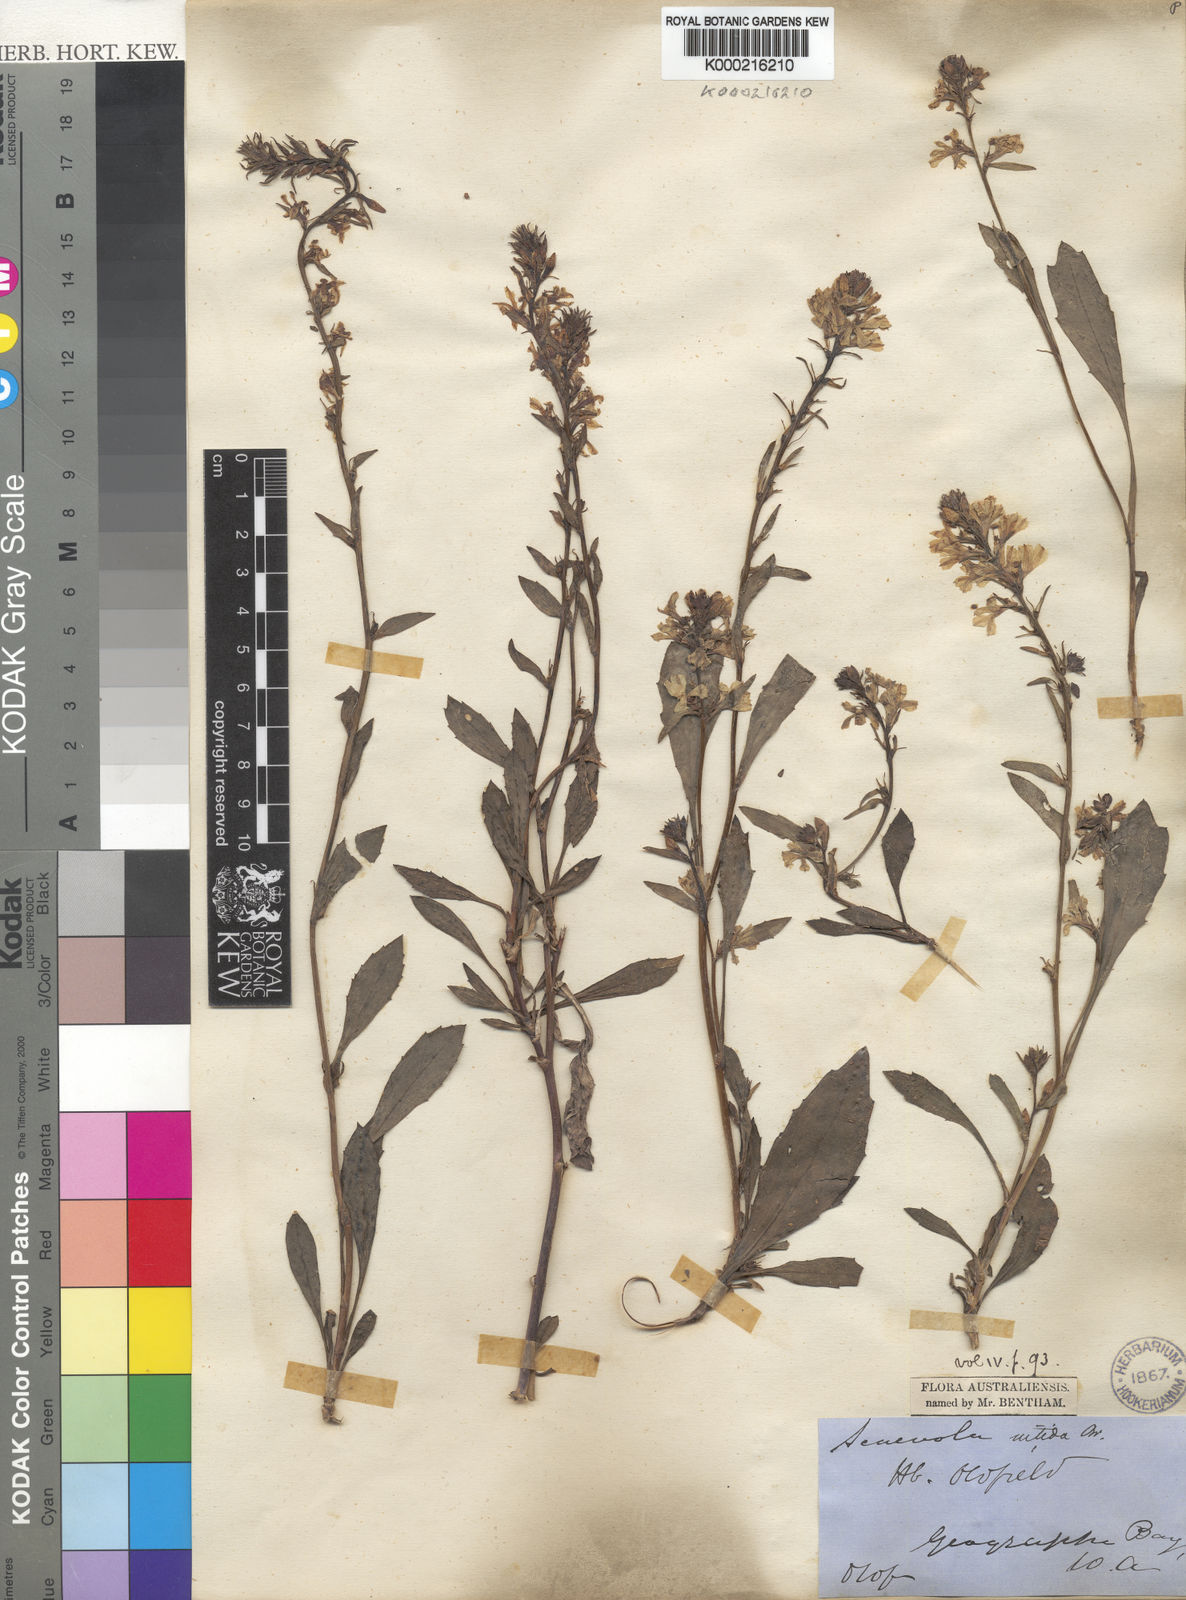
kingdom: Plantae
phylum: Tracheophyta
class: Magnoliopsida
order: Asterales
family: Goodeniaceae
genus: Scaevola
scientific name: Scaevola nitida
